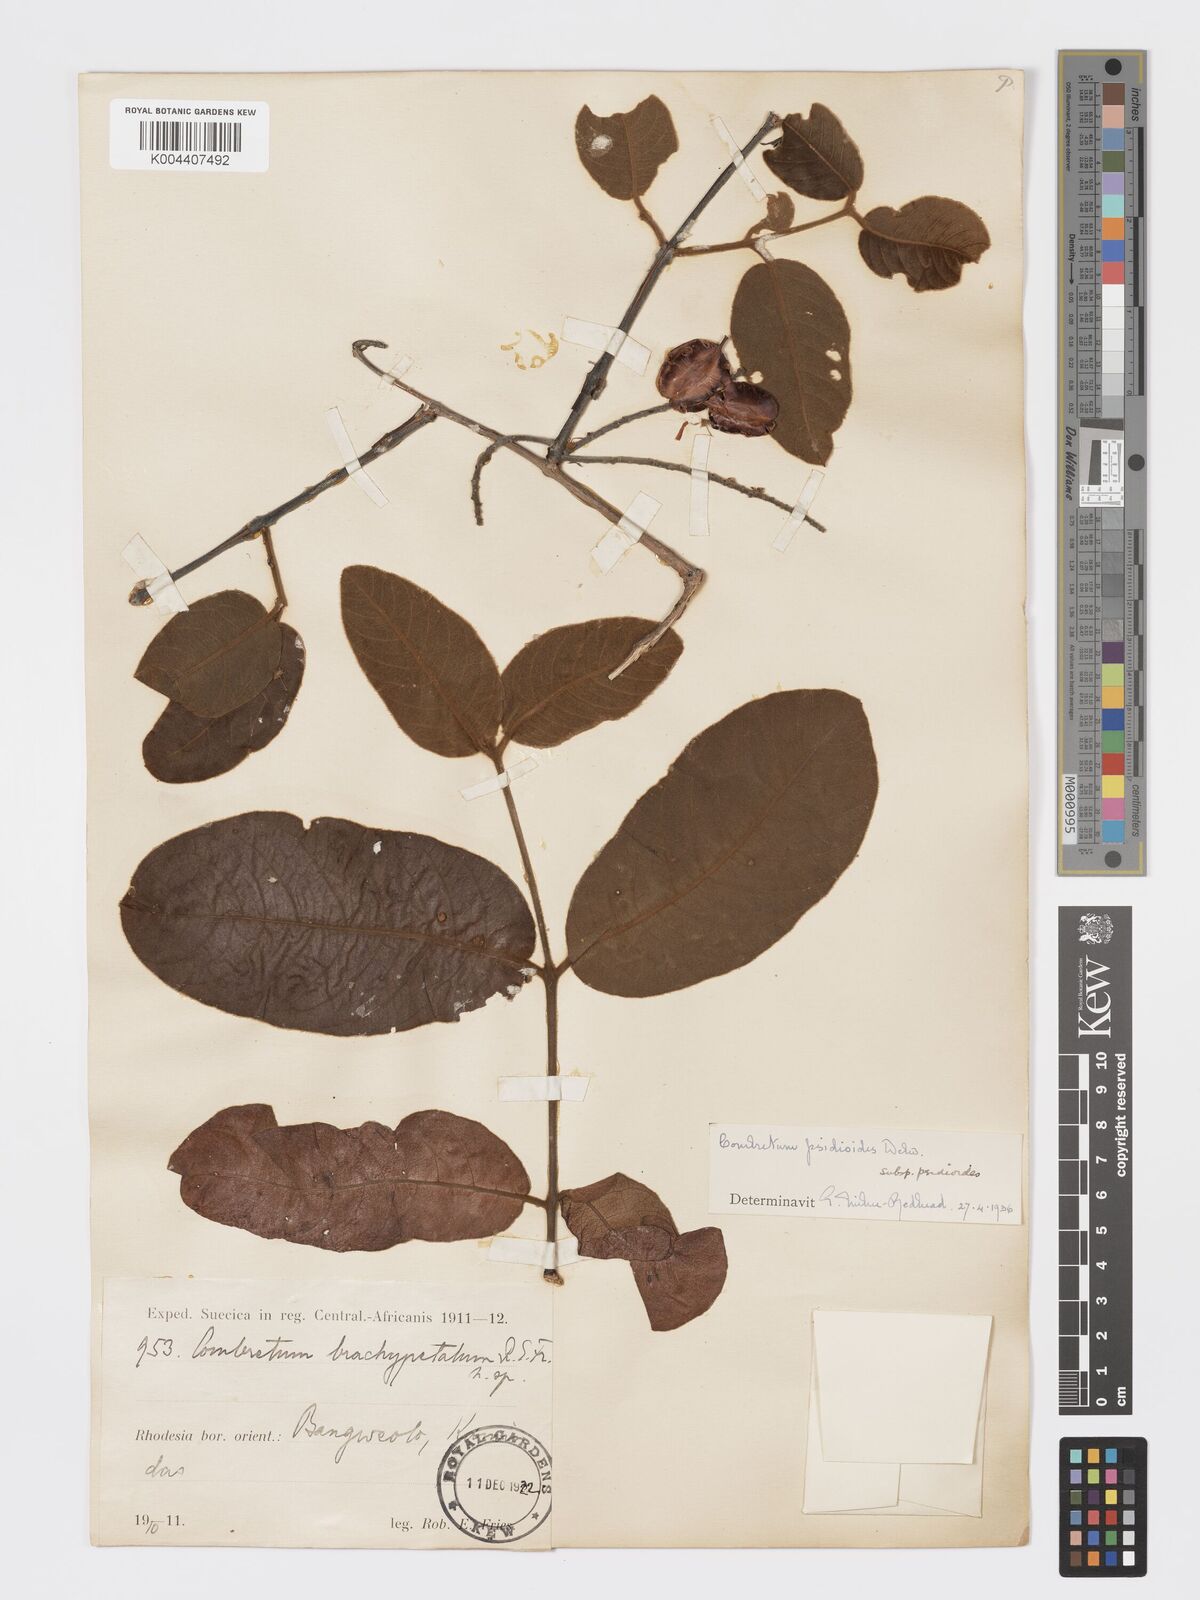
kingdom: Plantae
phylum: Tracheophyta
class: Magnoliopsida
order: Myrtales
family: Combretaceae
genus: Combretum
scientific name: Combretum psidioides
